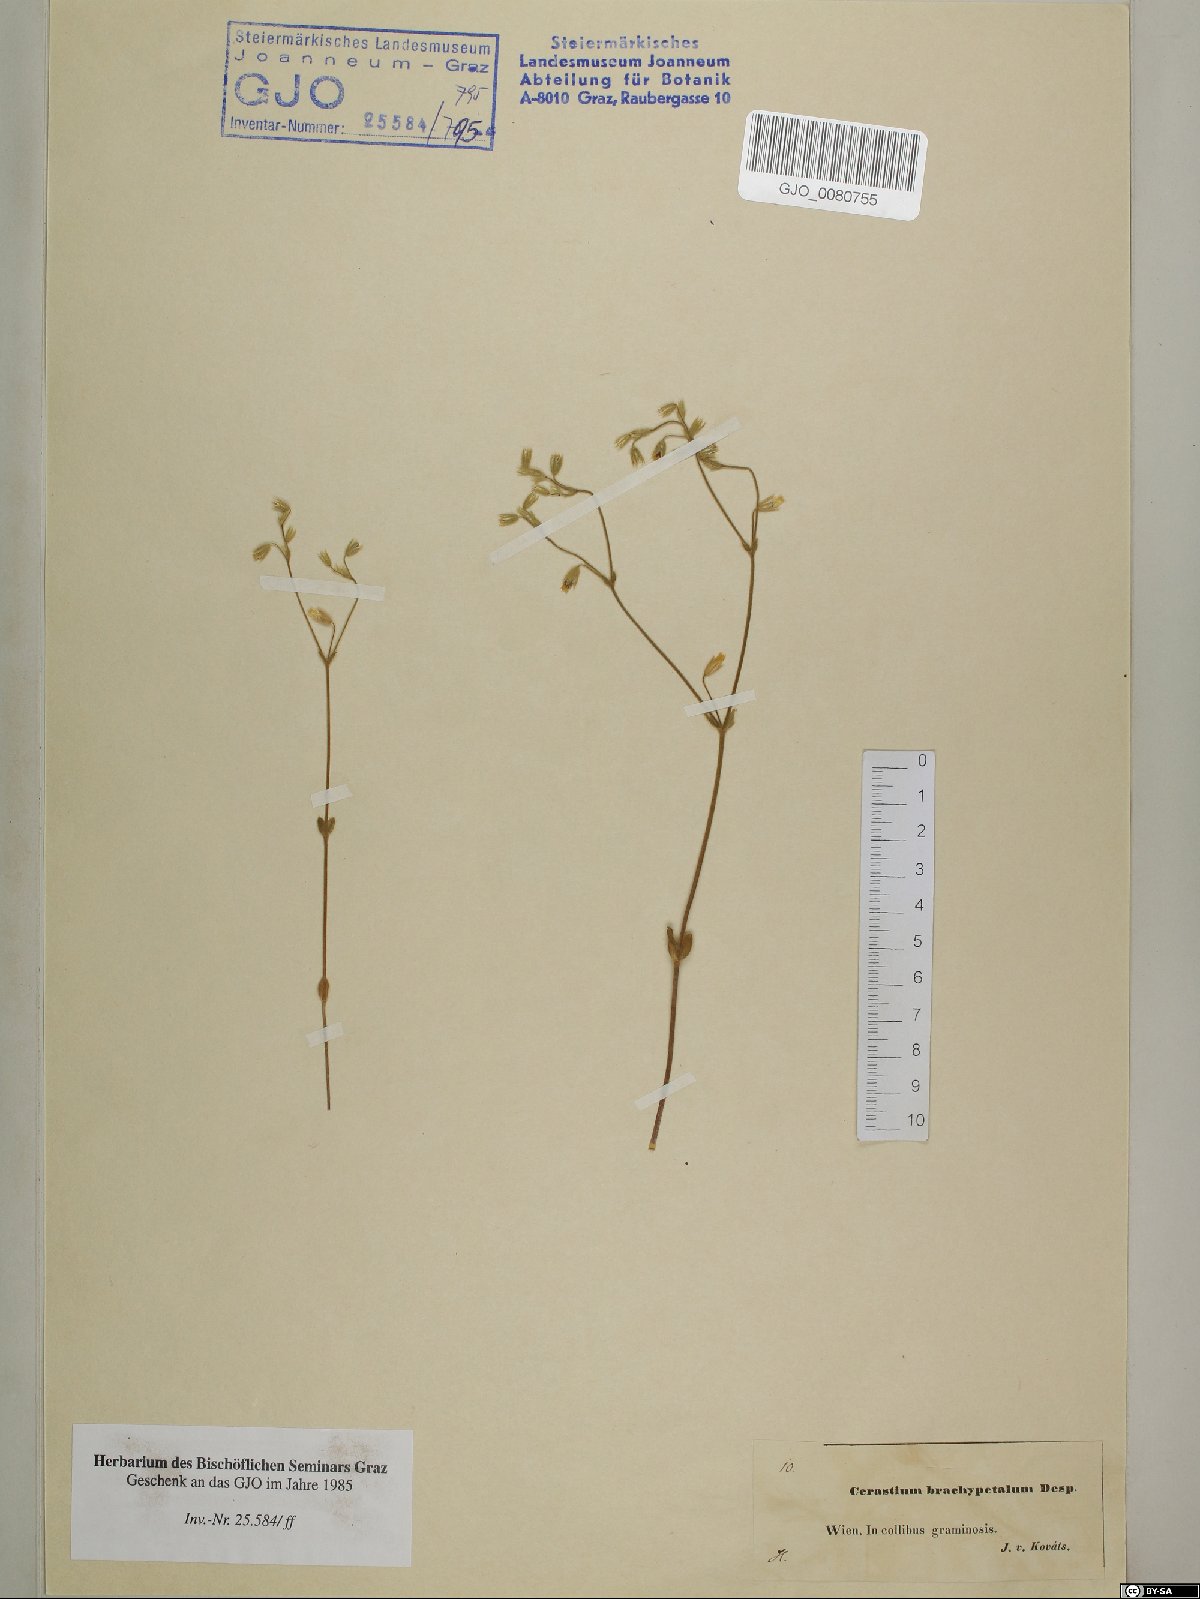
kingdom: Plantae
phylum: Tracheophyta
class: Magnoliopsida
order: Caryophyllales
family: Caryophyllaceae
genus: Cerastium
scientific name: Cerastium brachypetalum
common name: Grey mouse-ear
